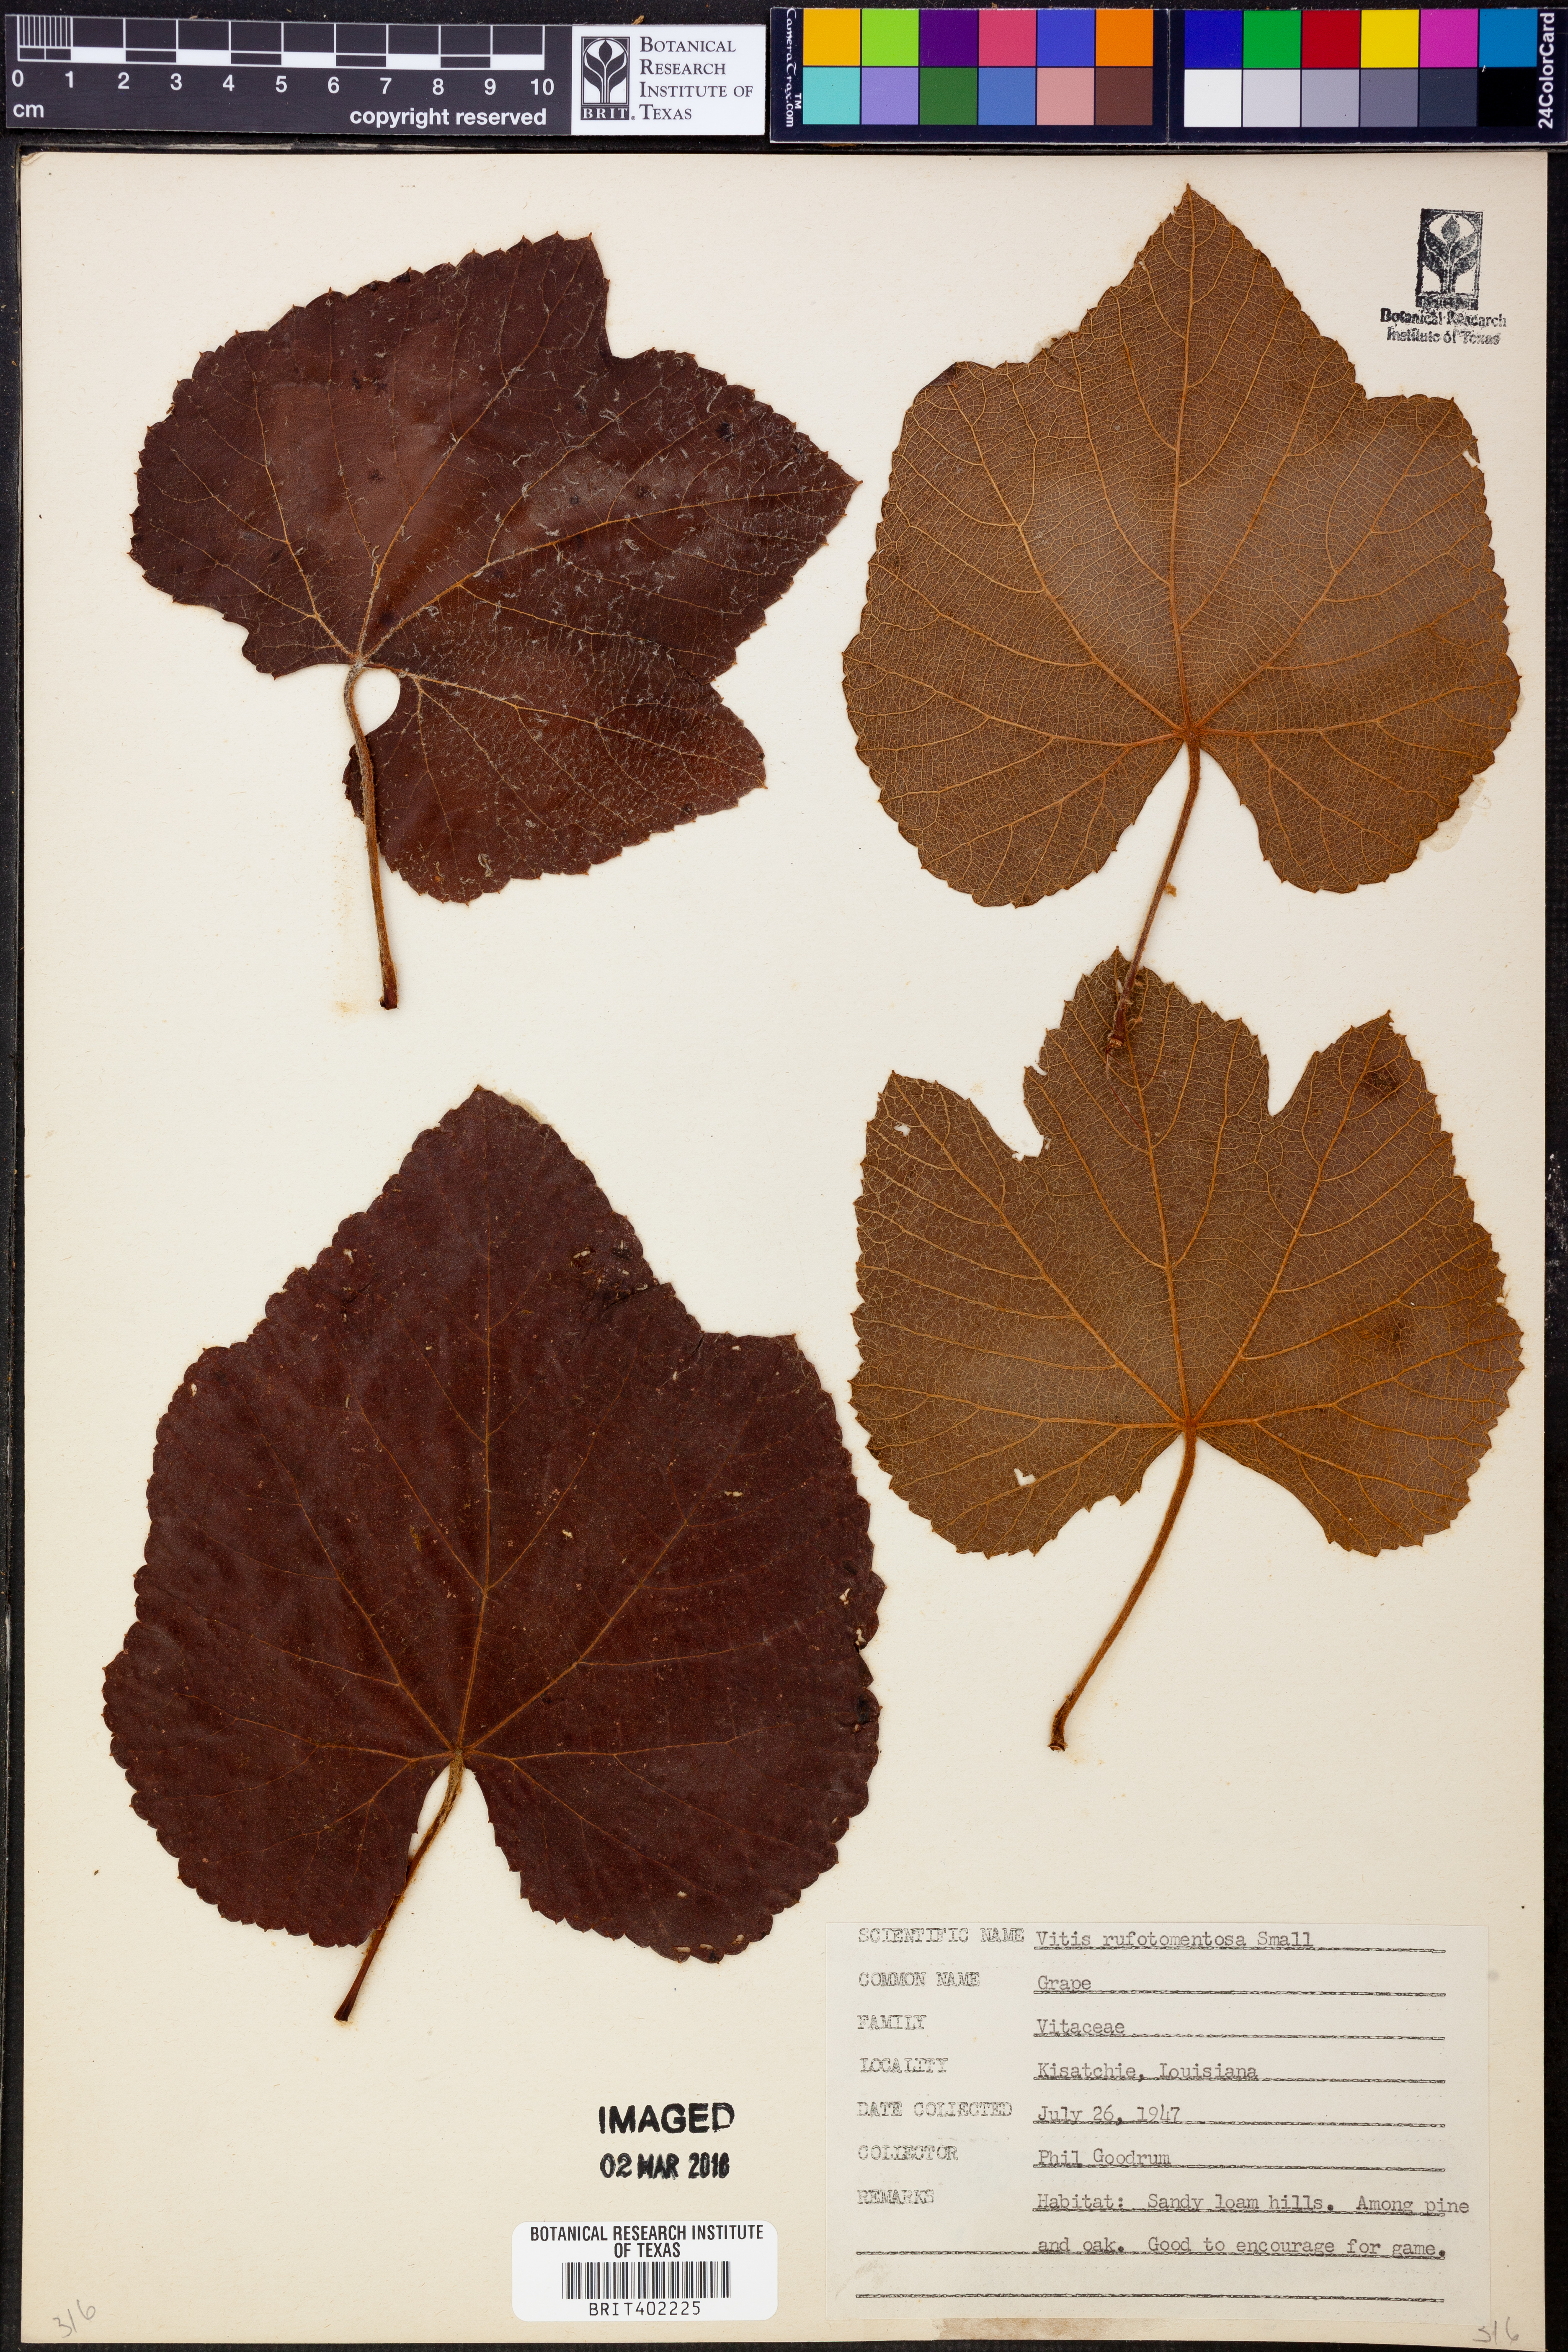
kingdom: Plantae
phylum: Tracheophyta
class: Magnoliopsida
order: Vitales
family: Vitaceae
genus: Vitis
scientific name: Vitis aestivalis
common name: Pigeon grape
